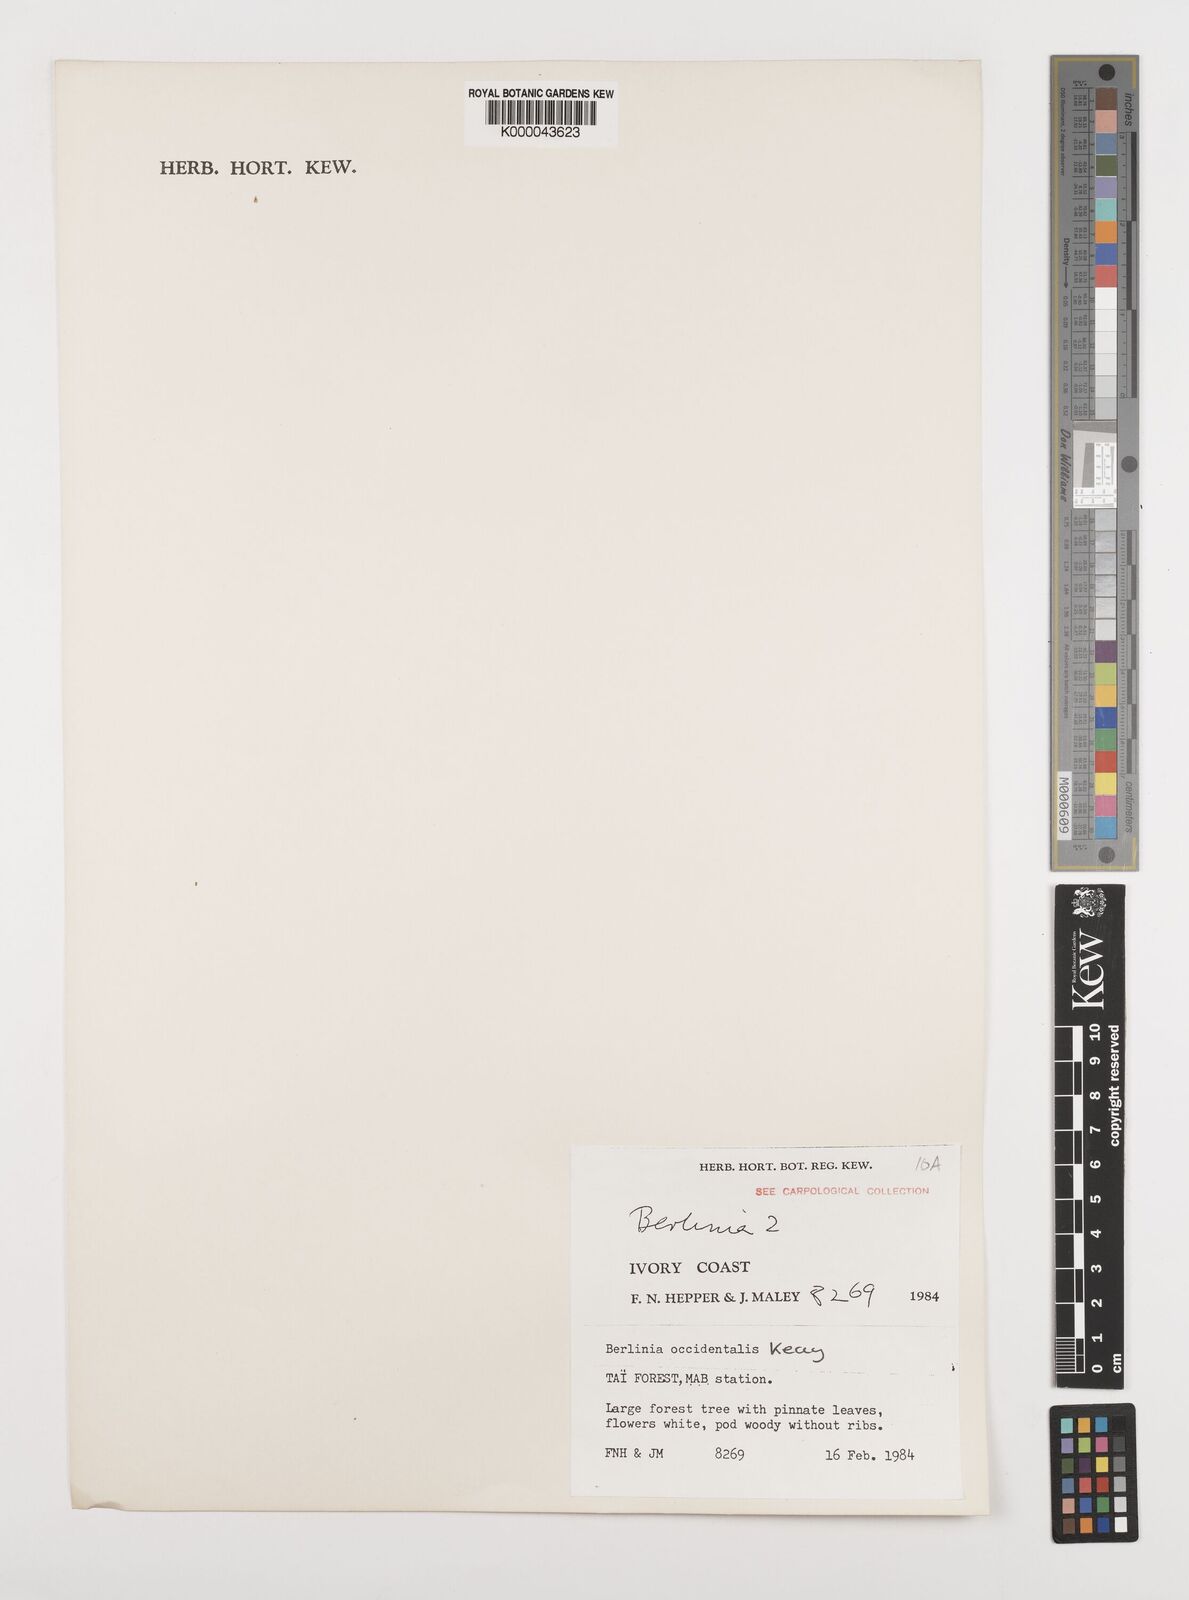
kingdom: Plantae
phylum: Tracheophyta
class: Magnoliopsida
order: Fabales
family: Fabaceae
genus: Berlinia
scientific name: Berlinia occidentalis
